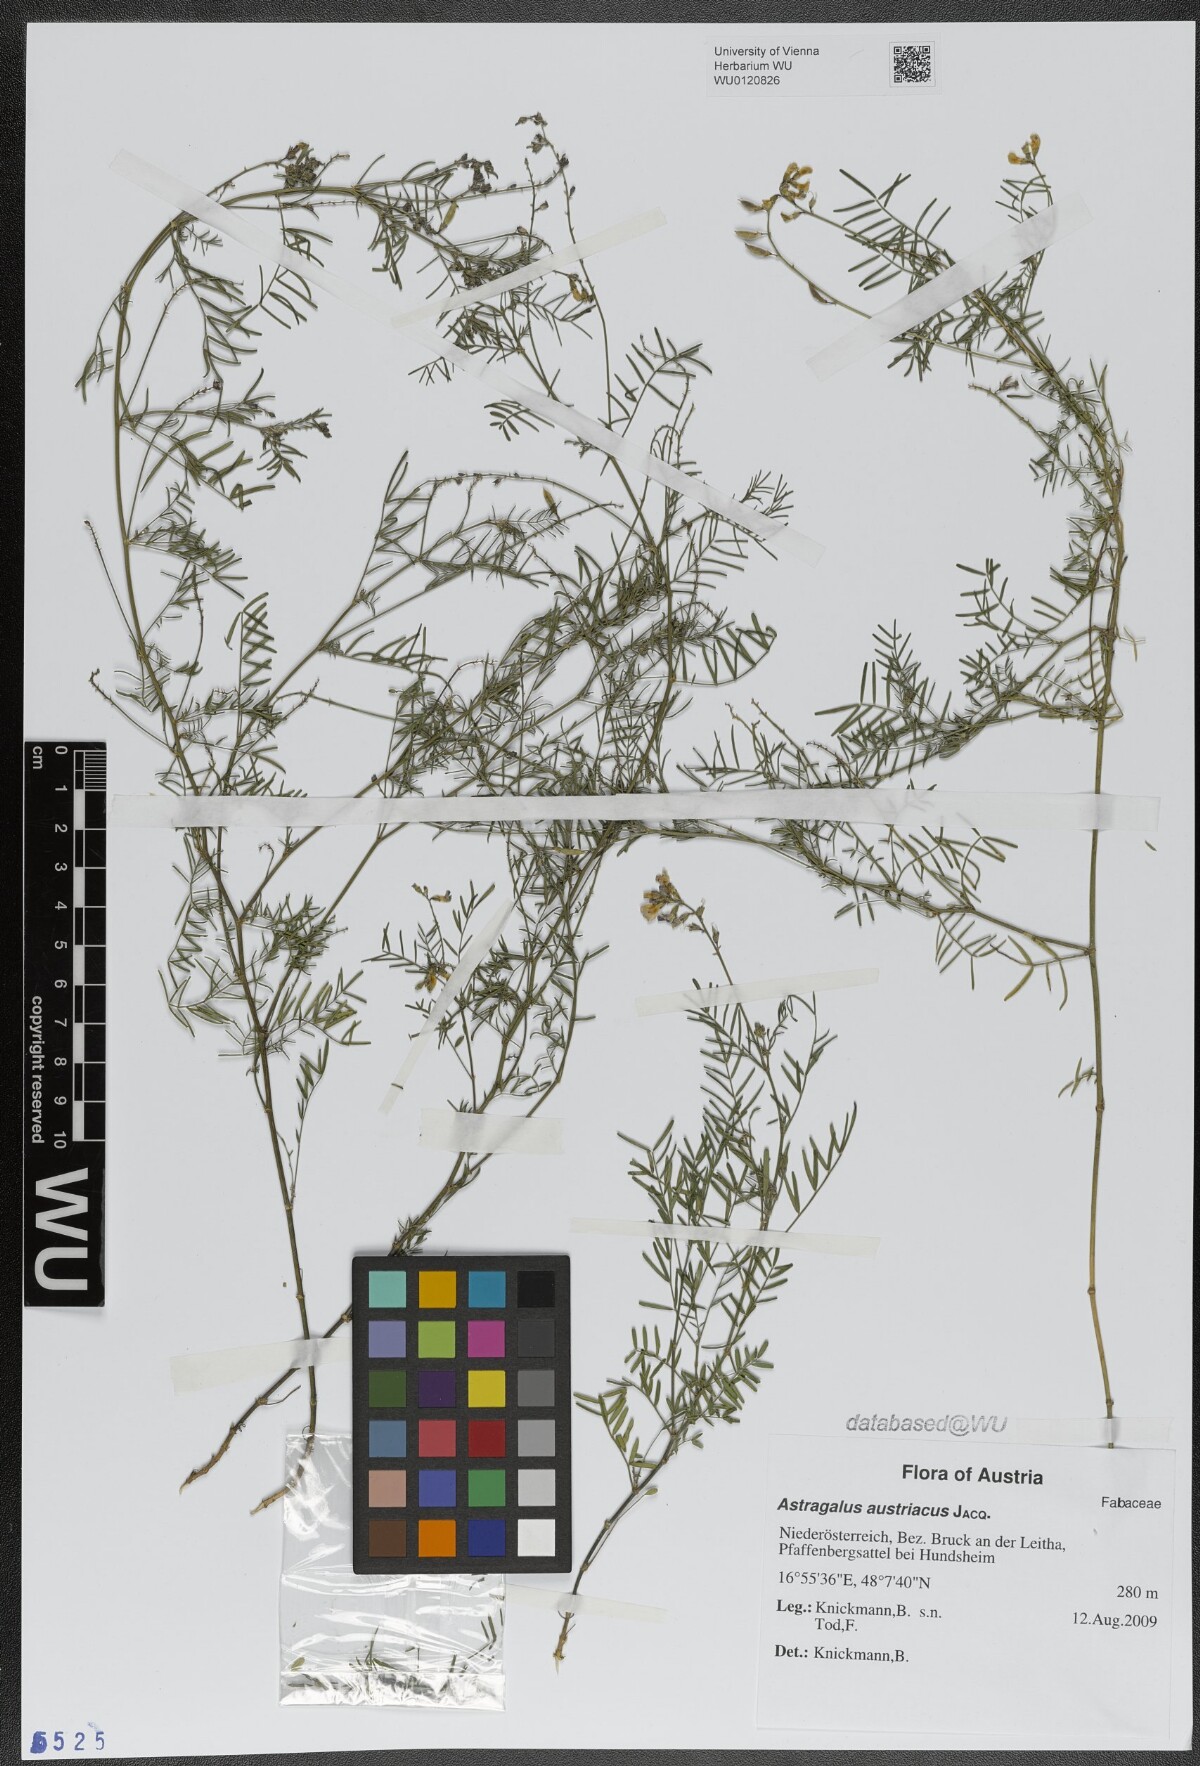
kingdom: Plantae
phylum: Tracheophyta
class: Magnoliopsida
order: Fabales
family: Fabaceae
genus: Astragalus
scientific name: Astragalus austriacus
